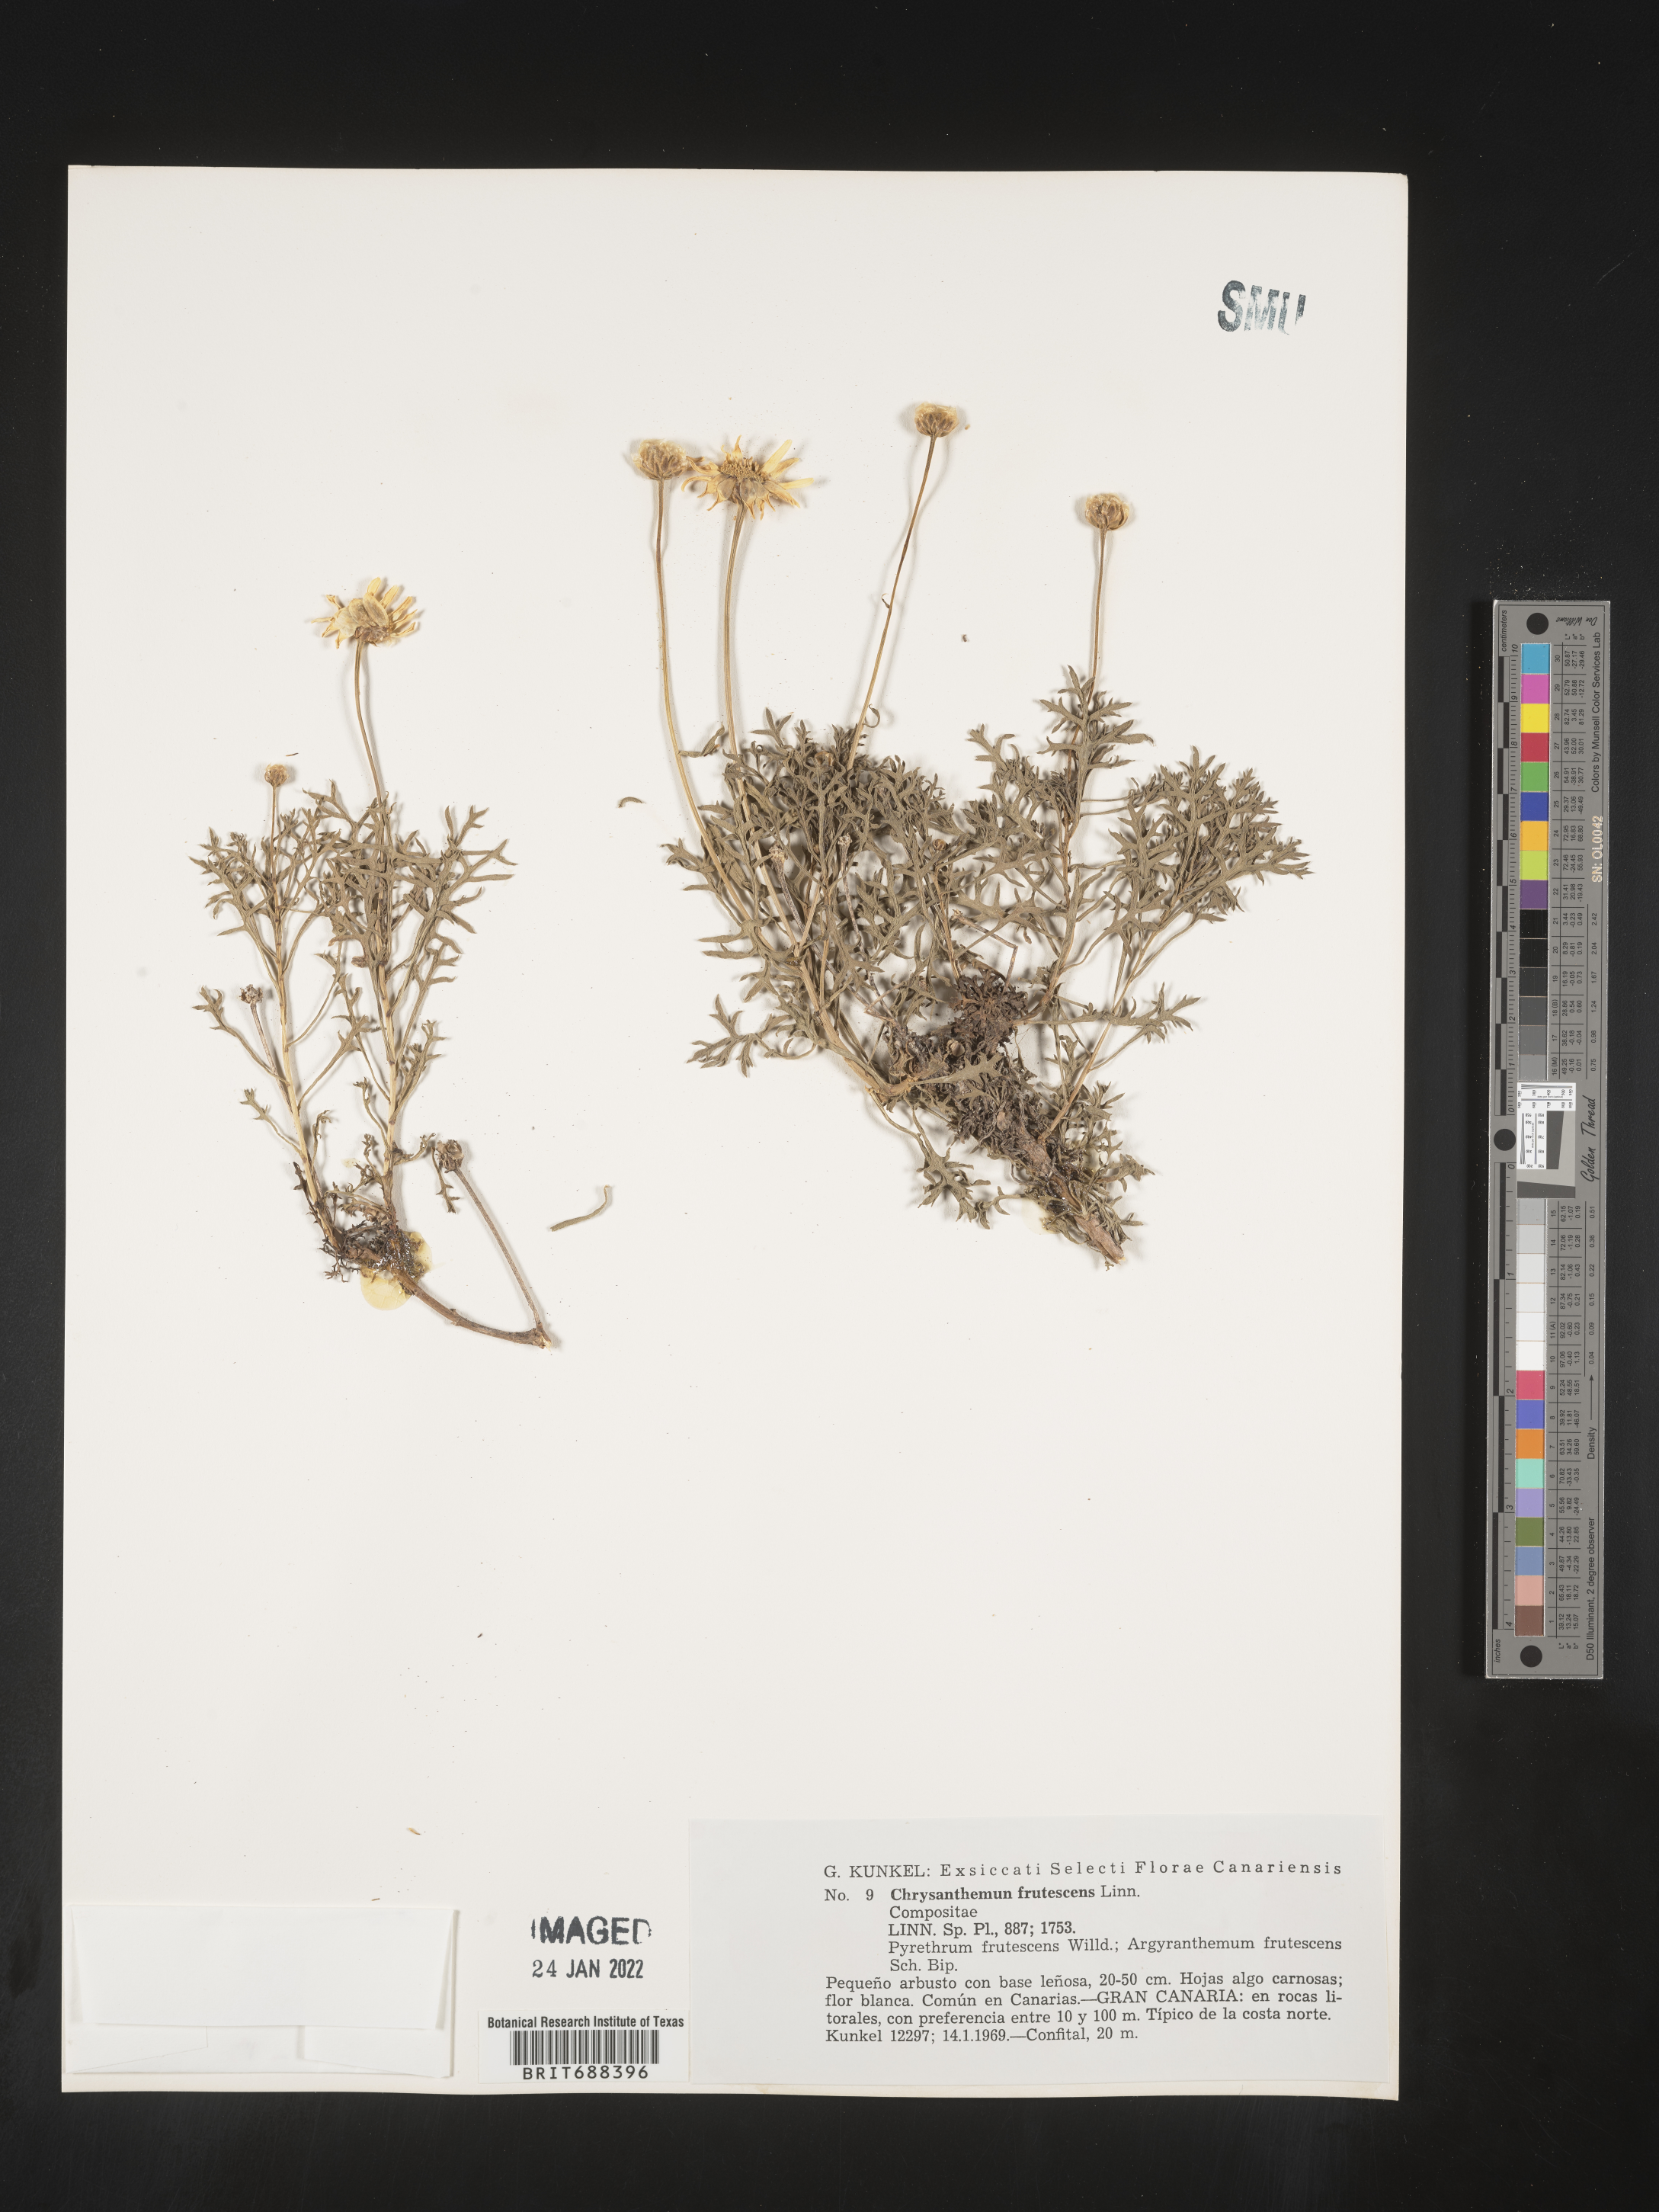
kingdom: Plantae
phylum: Tracheophyta
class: Magnoliopsida
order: Asterales
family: Asteraceae
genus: Chrysanthemum
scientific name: Chrysanthemum
